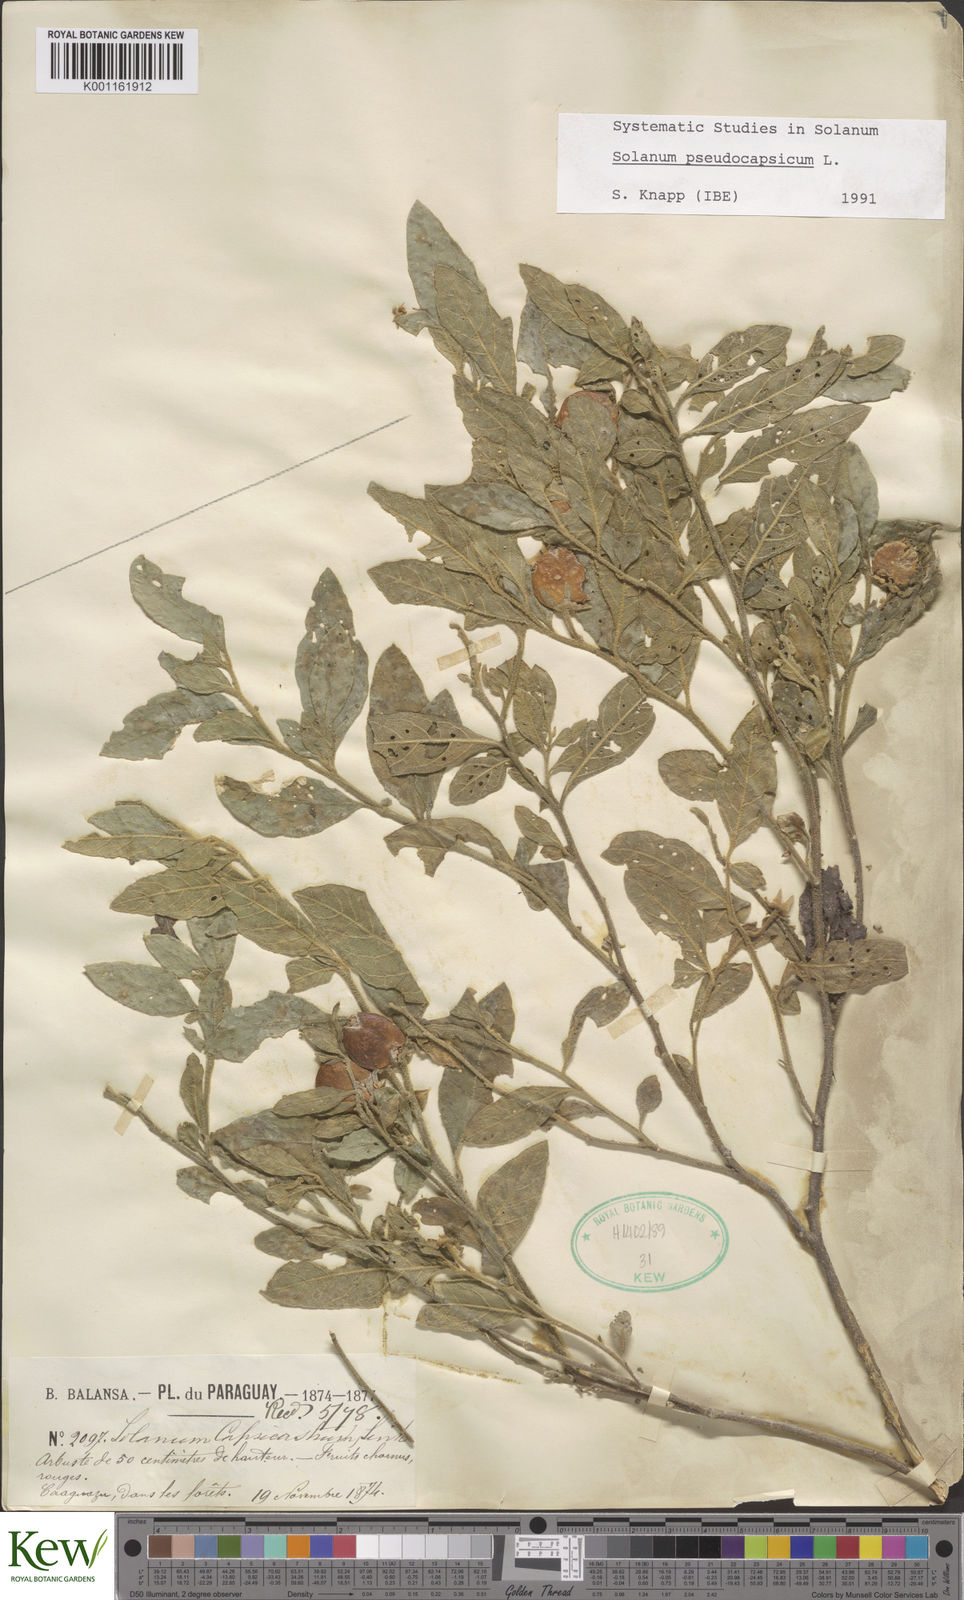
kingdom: Plantae
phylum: Tracheophyta
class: Magnoliopsida
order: Solanales
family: Solanaceae
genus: Solanum
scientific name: Solanum pseudocapsicum
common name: Jerusalem cherry
